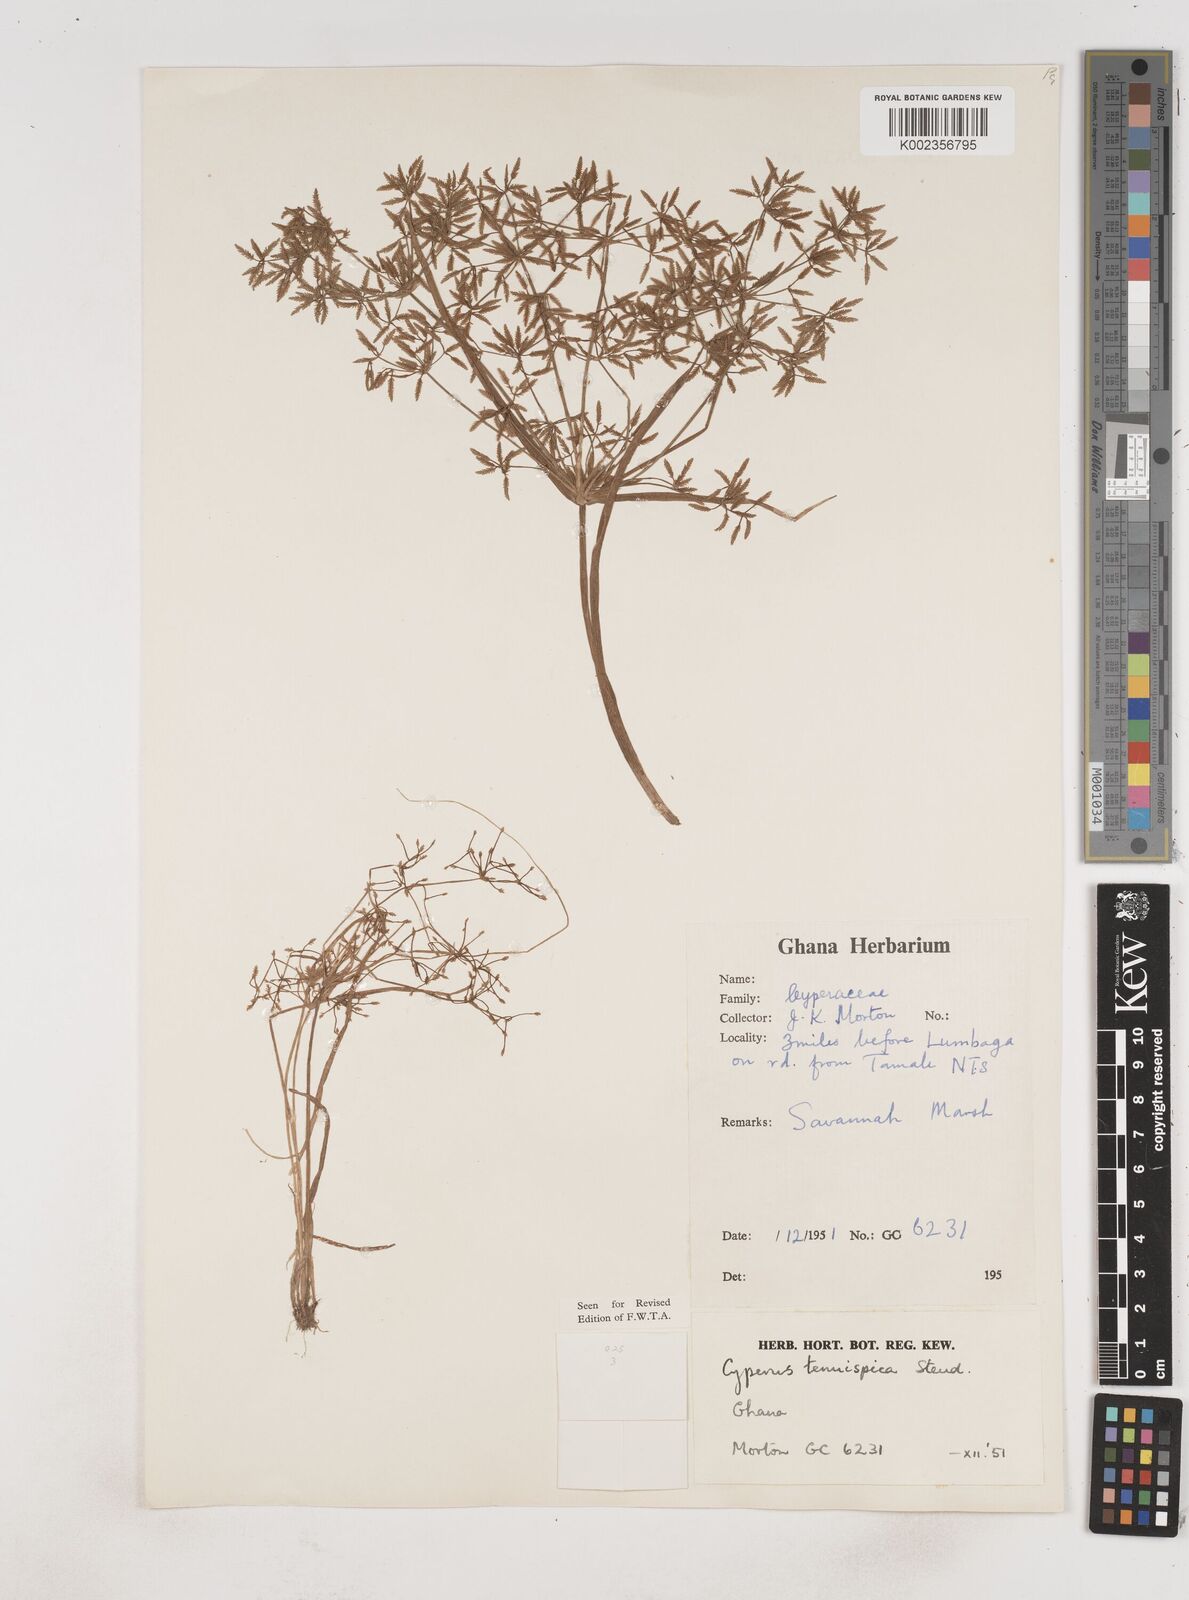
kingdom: Plantae
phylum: Tracheophyta
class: Liliopsida
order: Poales
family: Cyperaceae
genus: Cyperus
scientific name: Cyperus tenuispica
